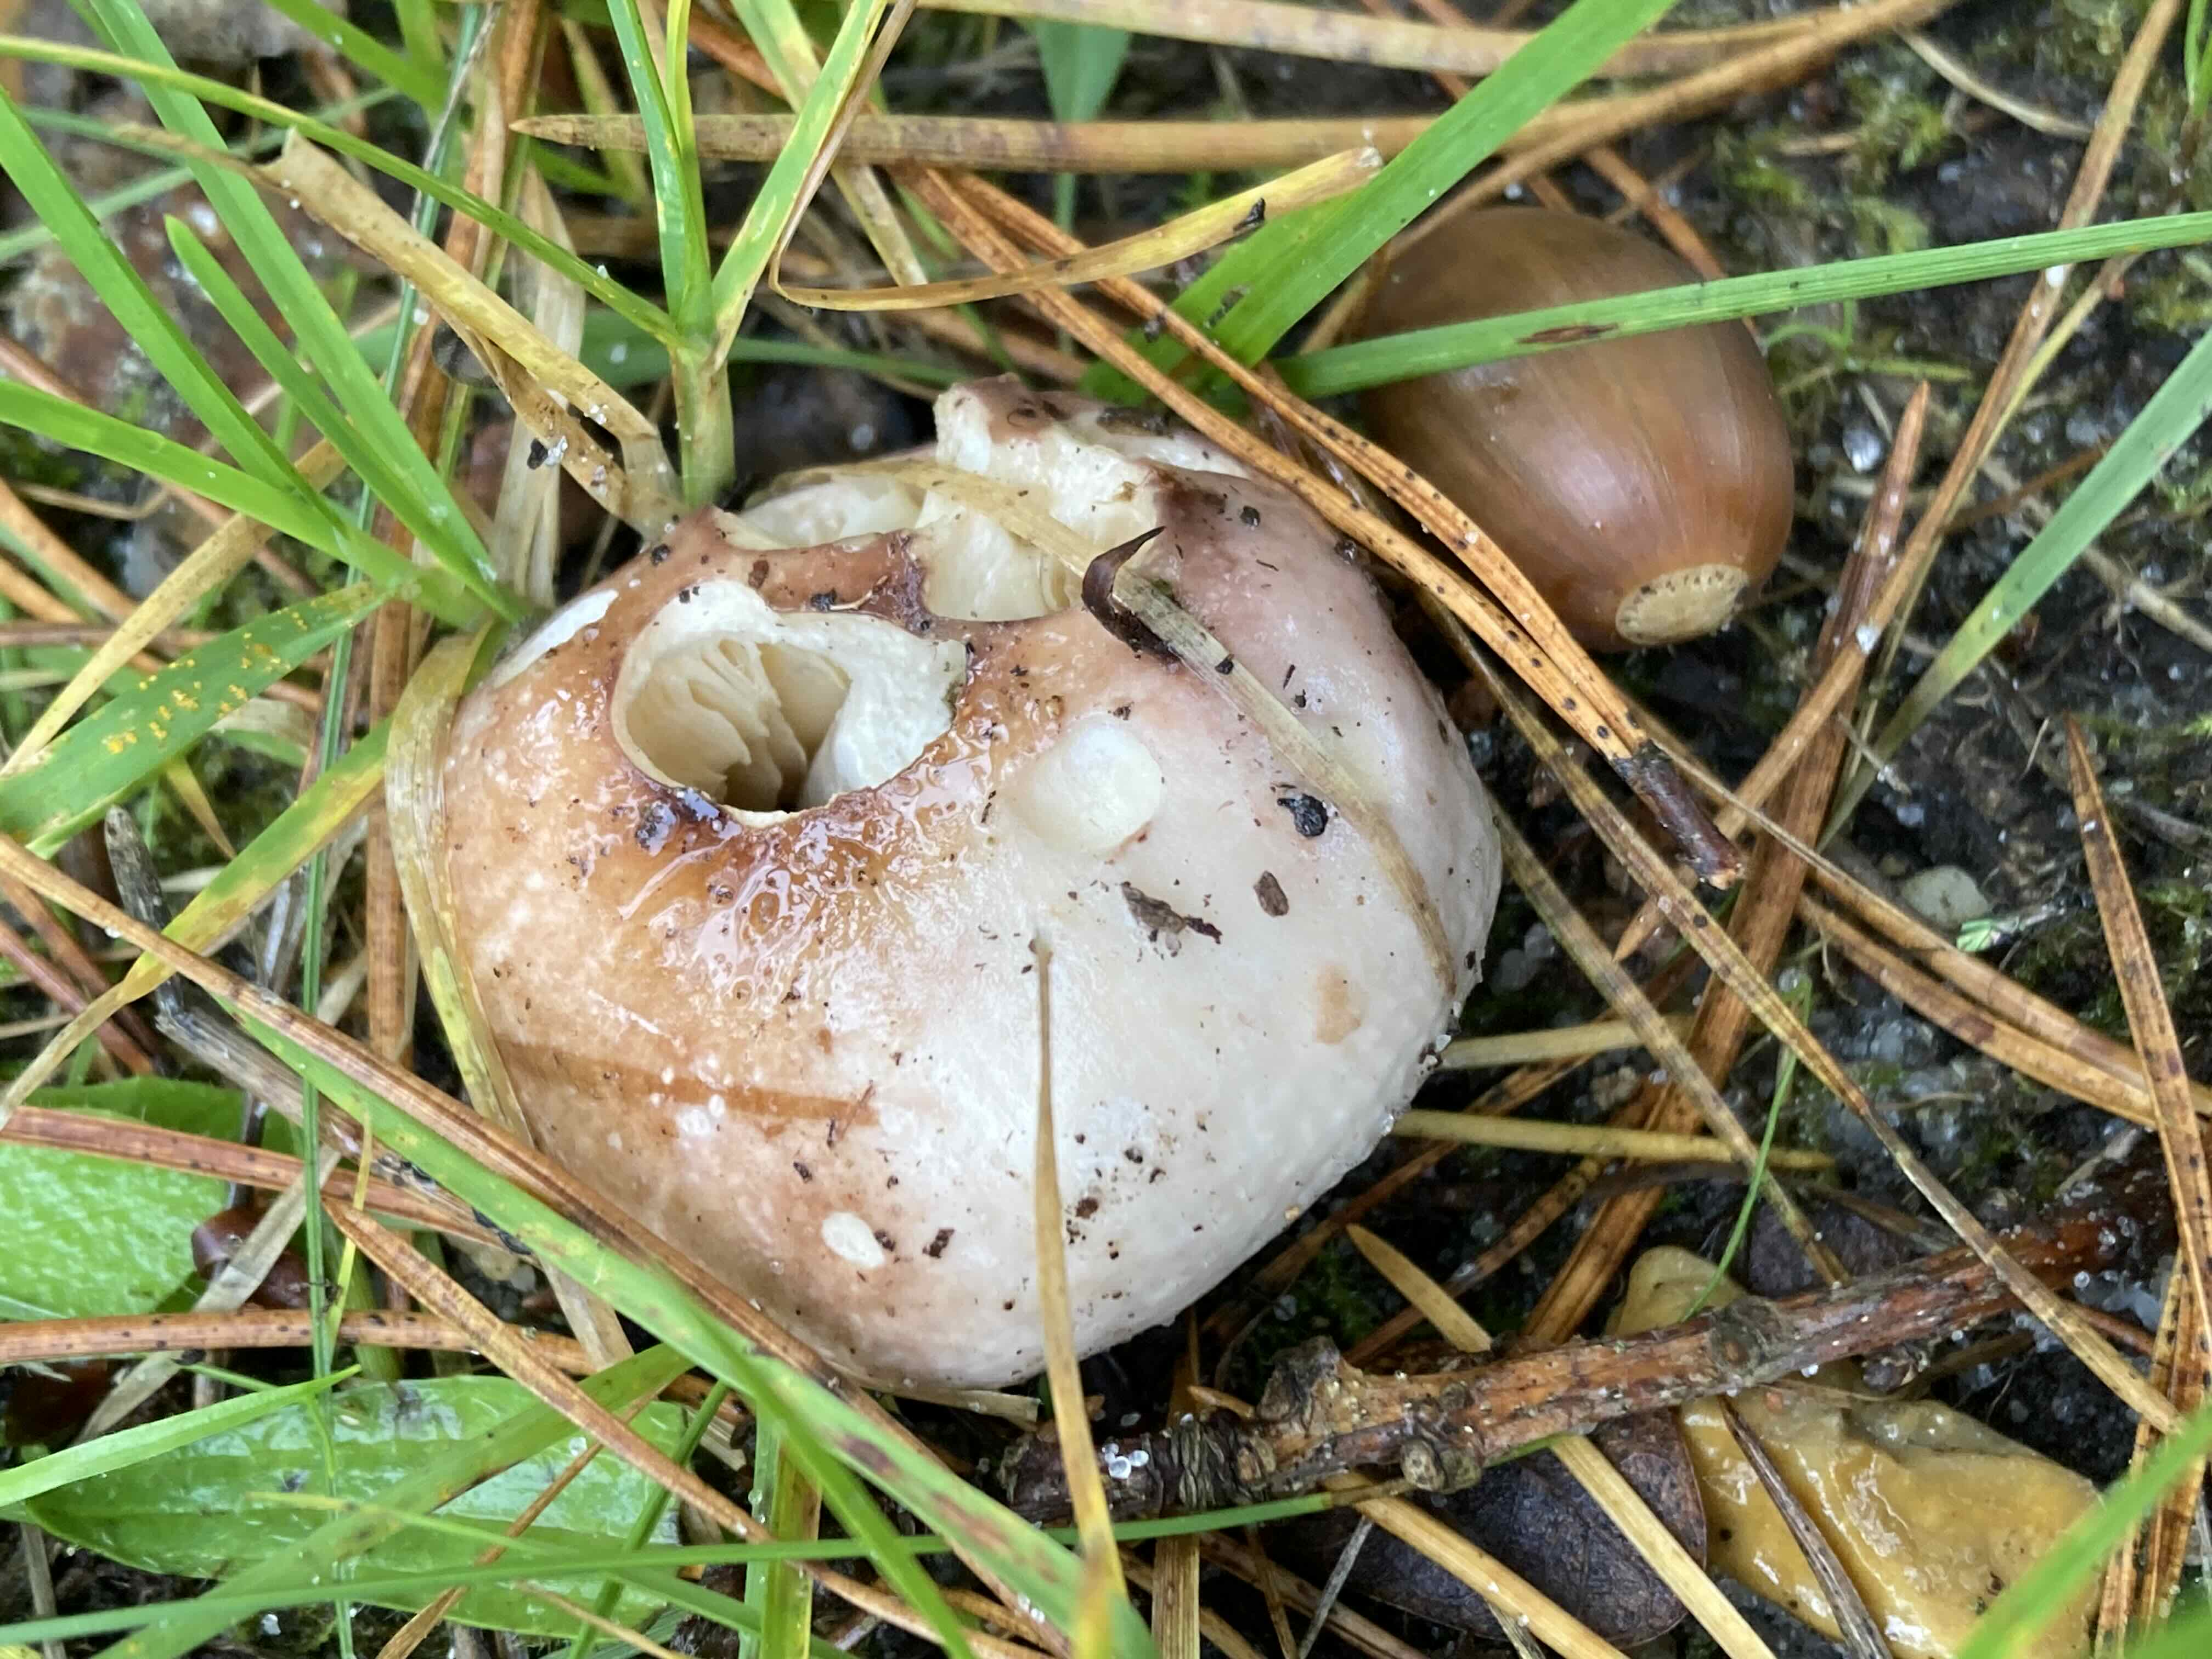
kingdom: Fungi
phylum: Basidiomycota
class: Agaricomycetes
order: Russulales
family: Russulaceae
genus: Russula
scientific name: Russula
